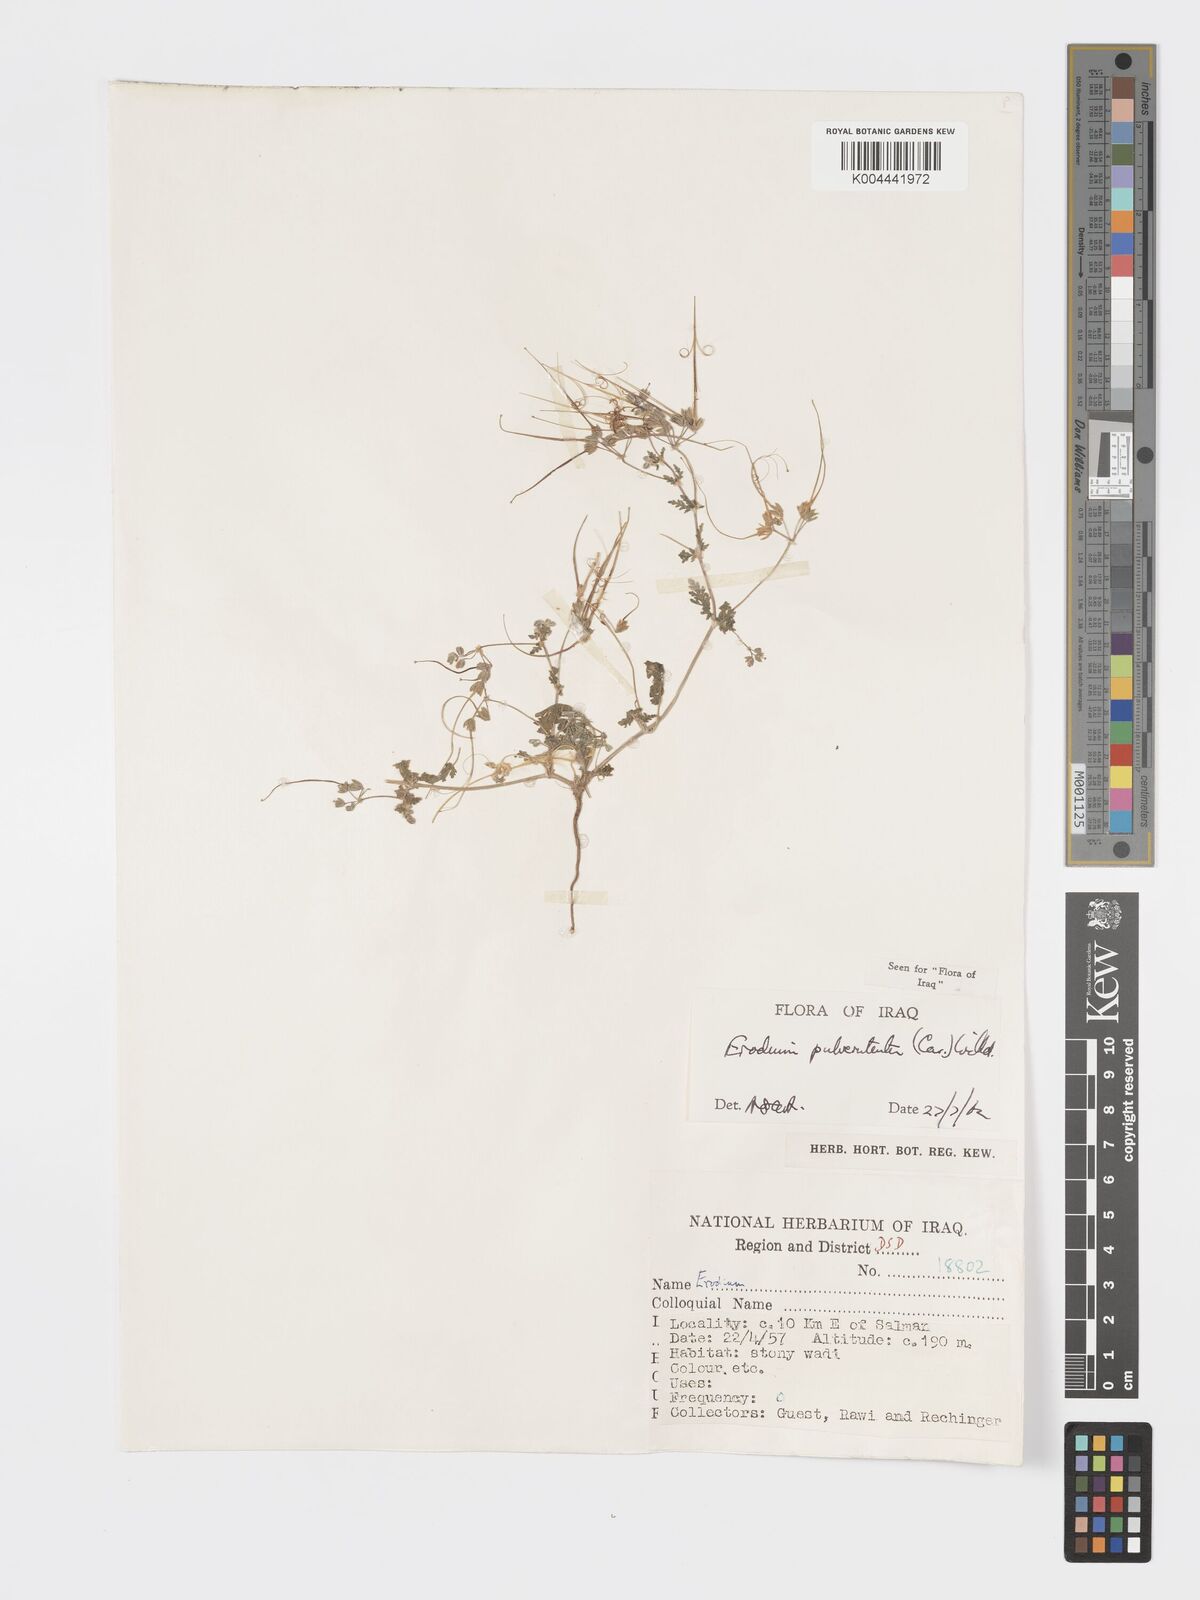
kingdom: Plantae
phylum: Tracheophyta
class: Magnoliopsida
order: Geraniales
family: Geraniaceae
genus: Erodium
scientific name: Erodium laciniatum
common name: Cutleaf stork's bill
